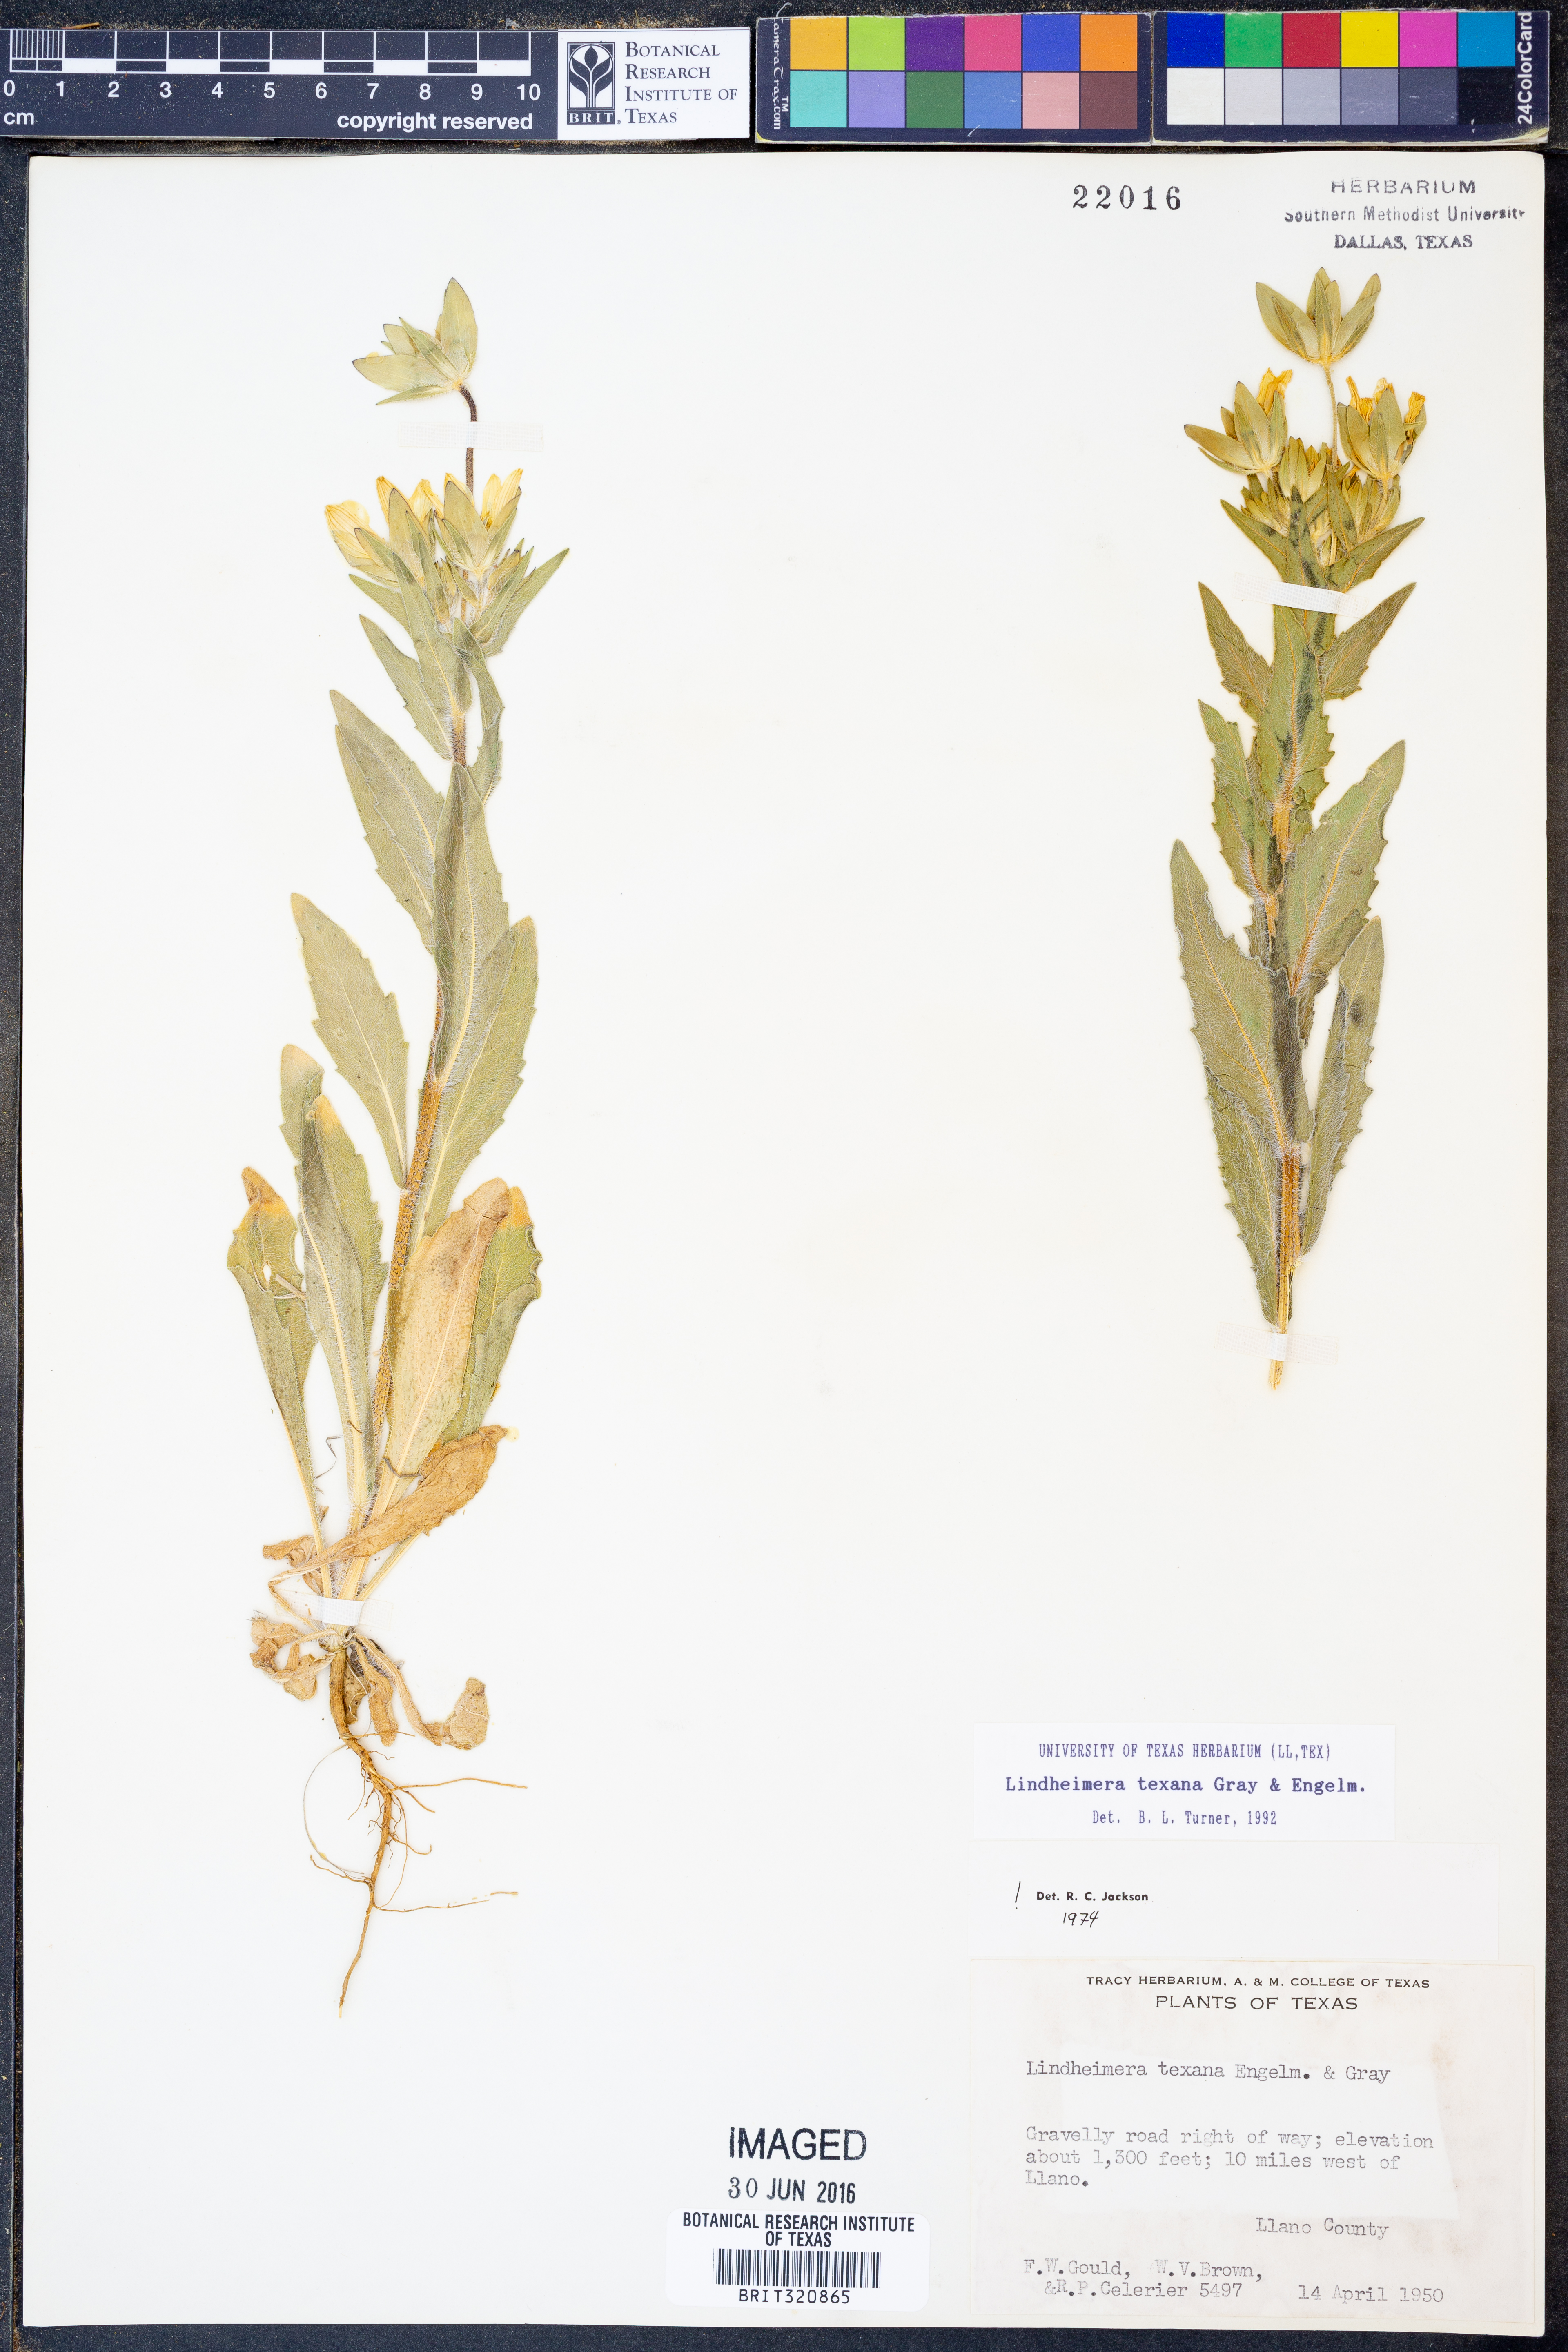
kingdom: Plantae
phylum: Tracheophyta
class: Magnoliopsida
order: Asterales
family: Asteraceae
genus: Lindheimera
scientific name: Lindheimera texana
